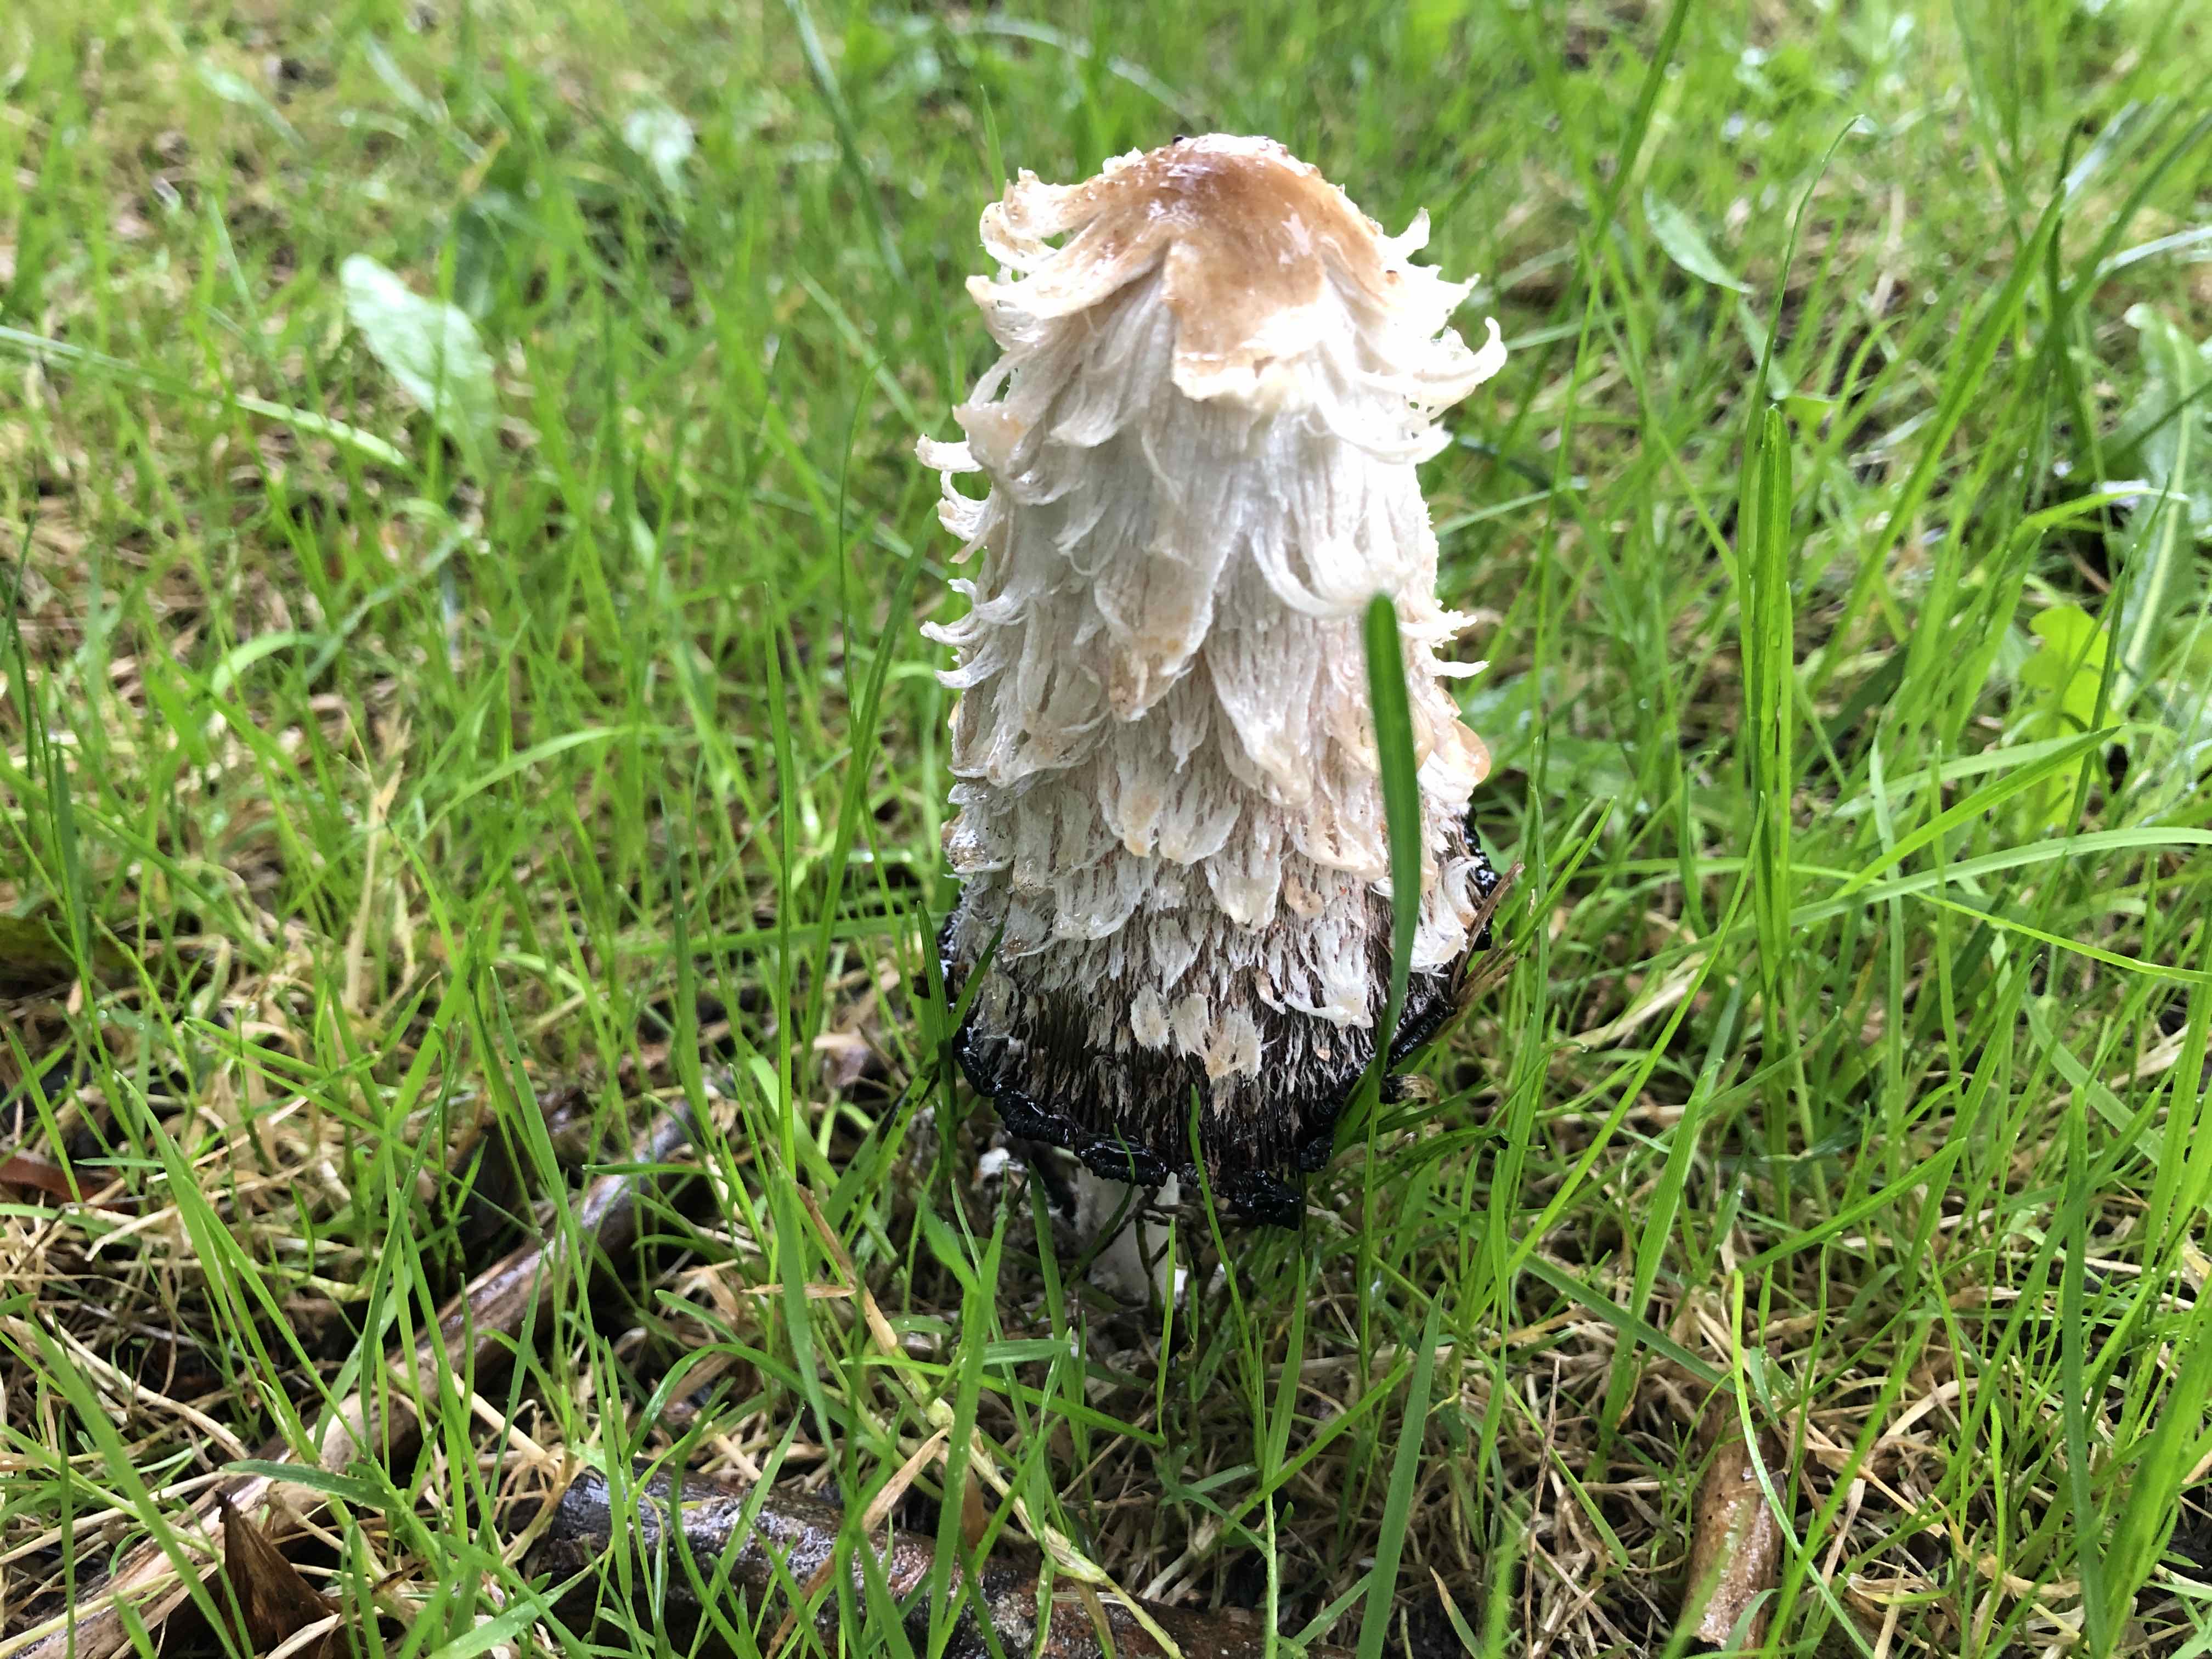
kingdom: Fungi
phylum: Basidiomycota
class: Agaricomycetes
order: Agaricales
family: Agaricaceae
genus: Coprinus
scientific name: Coprinus comatus
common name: stor parykhat
